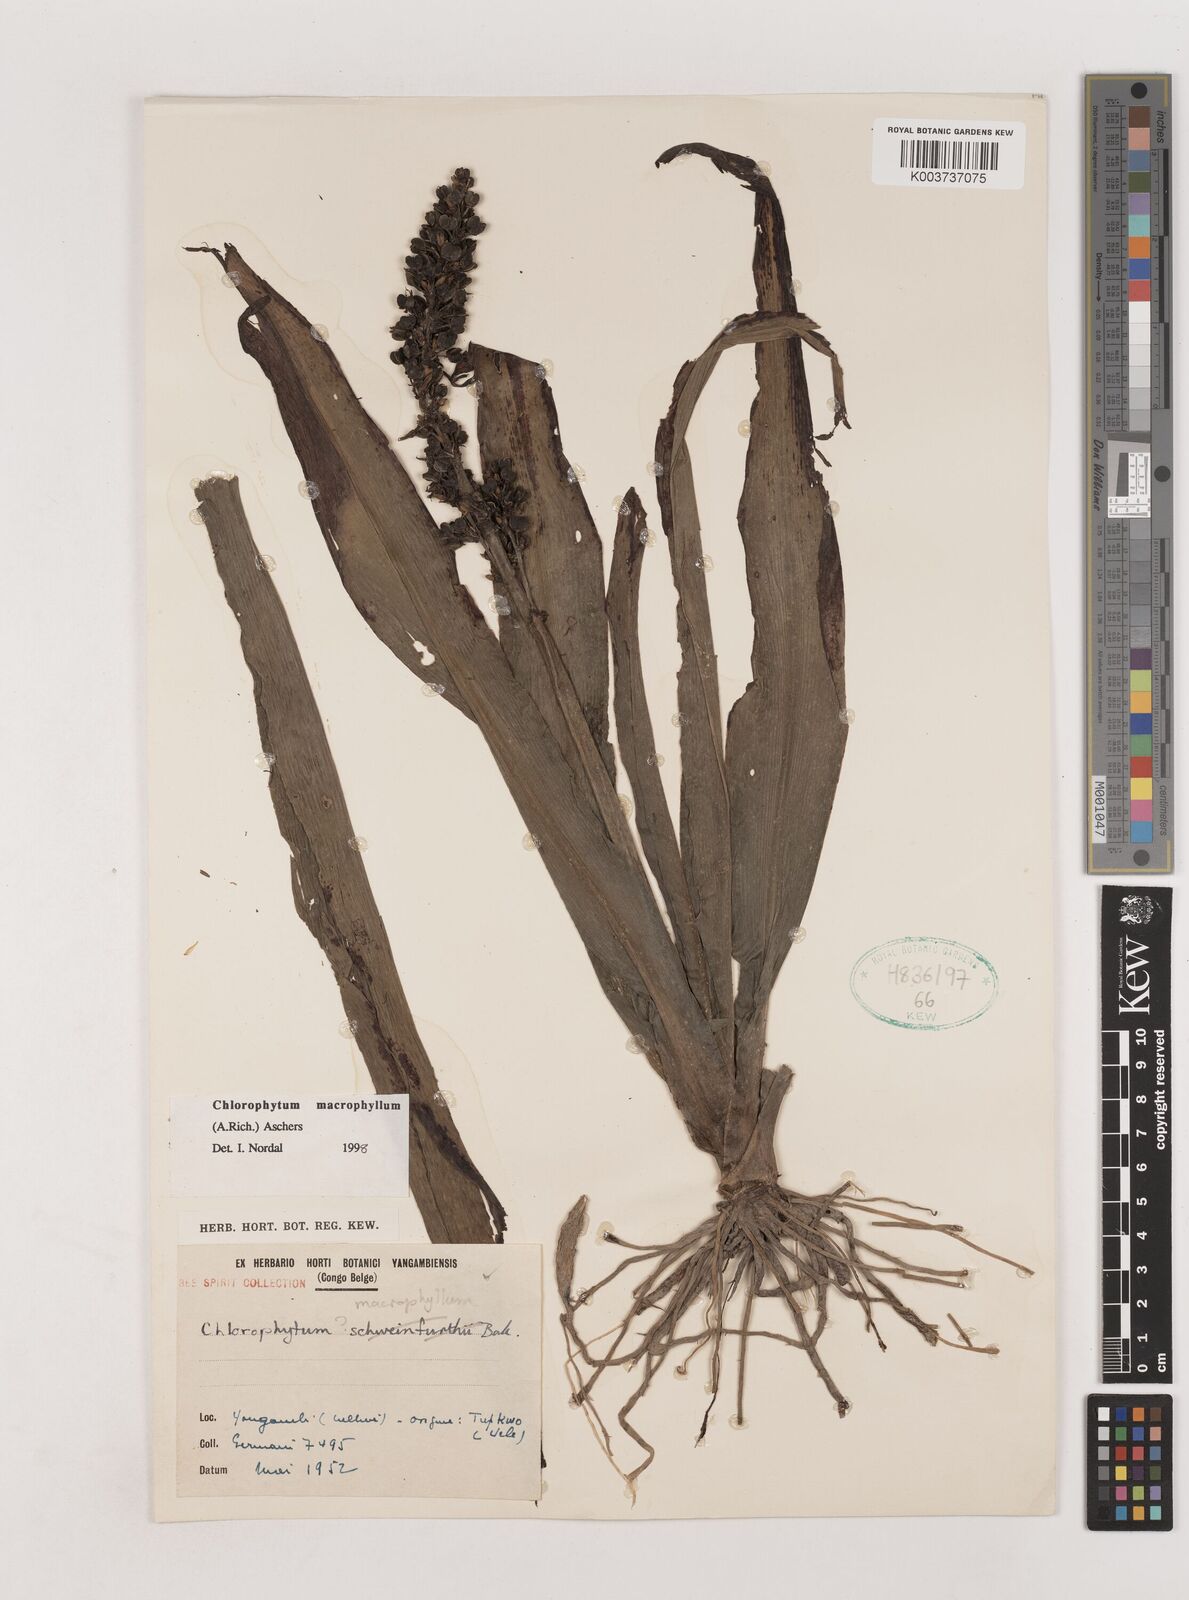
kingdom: Plantae
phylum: Tracheophyta
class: Liliopsida
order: Asparagales
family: Asparagaceae
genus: Chlorophytum
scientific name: Chlorophytum macrophyllum
